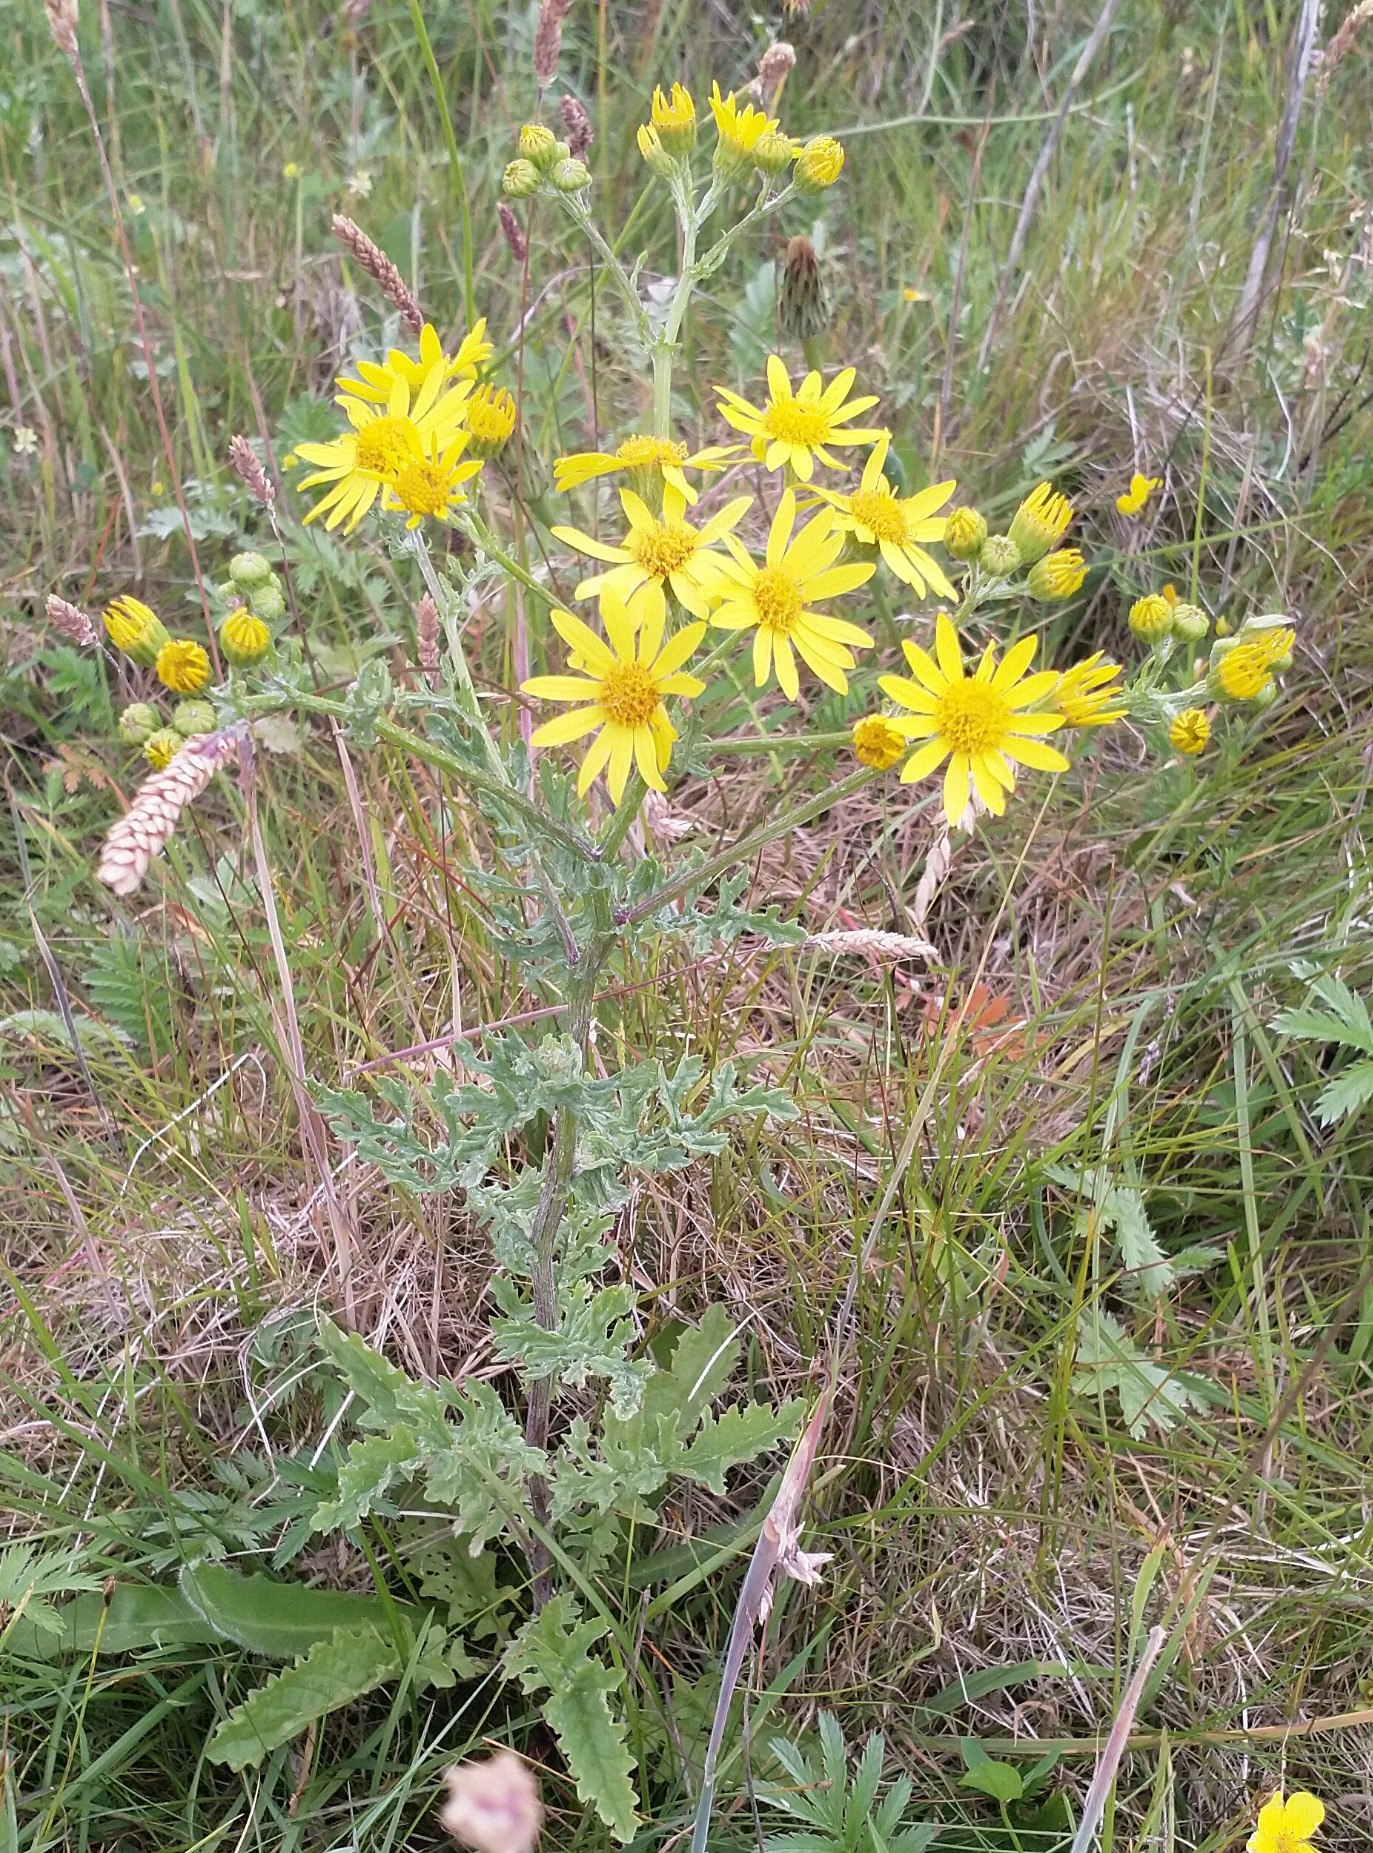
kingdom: Plantae
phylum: Tracheophyta
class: Magnoliopsida
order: Asterales
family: Asteraceae
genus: Jacobaea
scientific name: Jacobaea aquatica
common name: Vand-brandbæger
